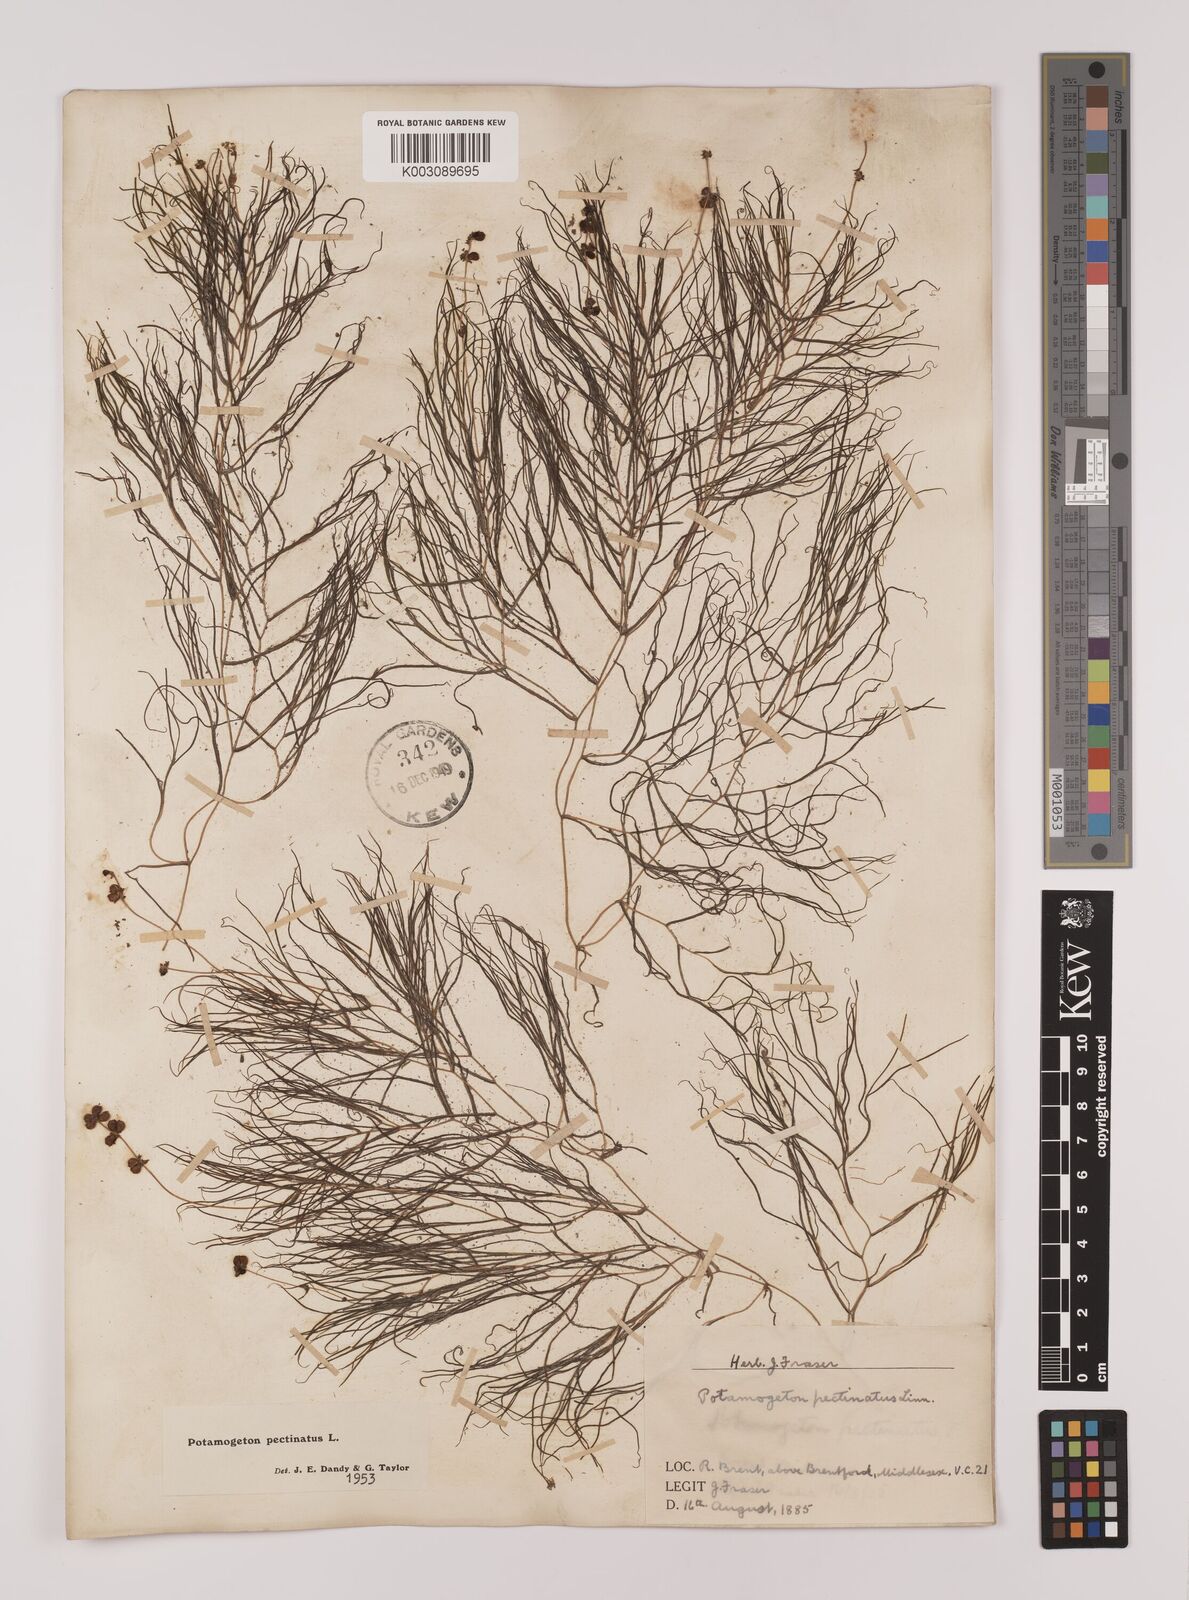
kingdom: Plantae
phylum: Tracheophyta
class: Liliopsida
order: Alismatales
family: Potamogetonaceae
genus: Stuckenia
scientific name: Stuckenia pectinata
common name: Sago pondweed
